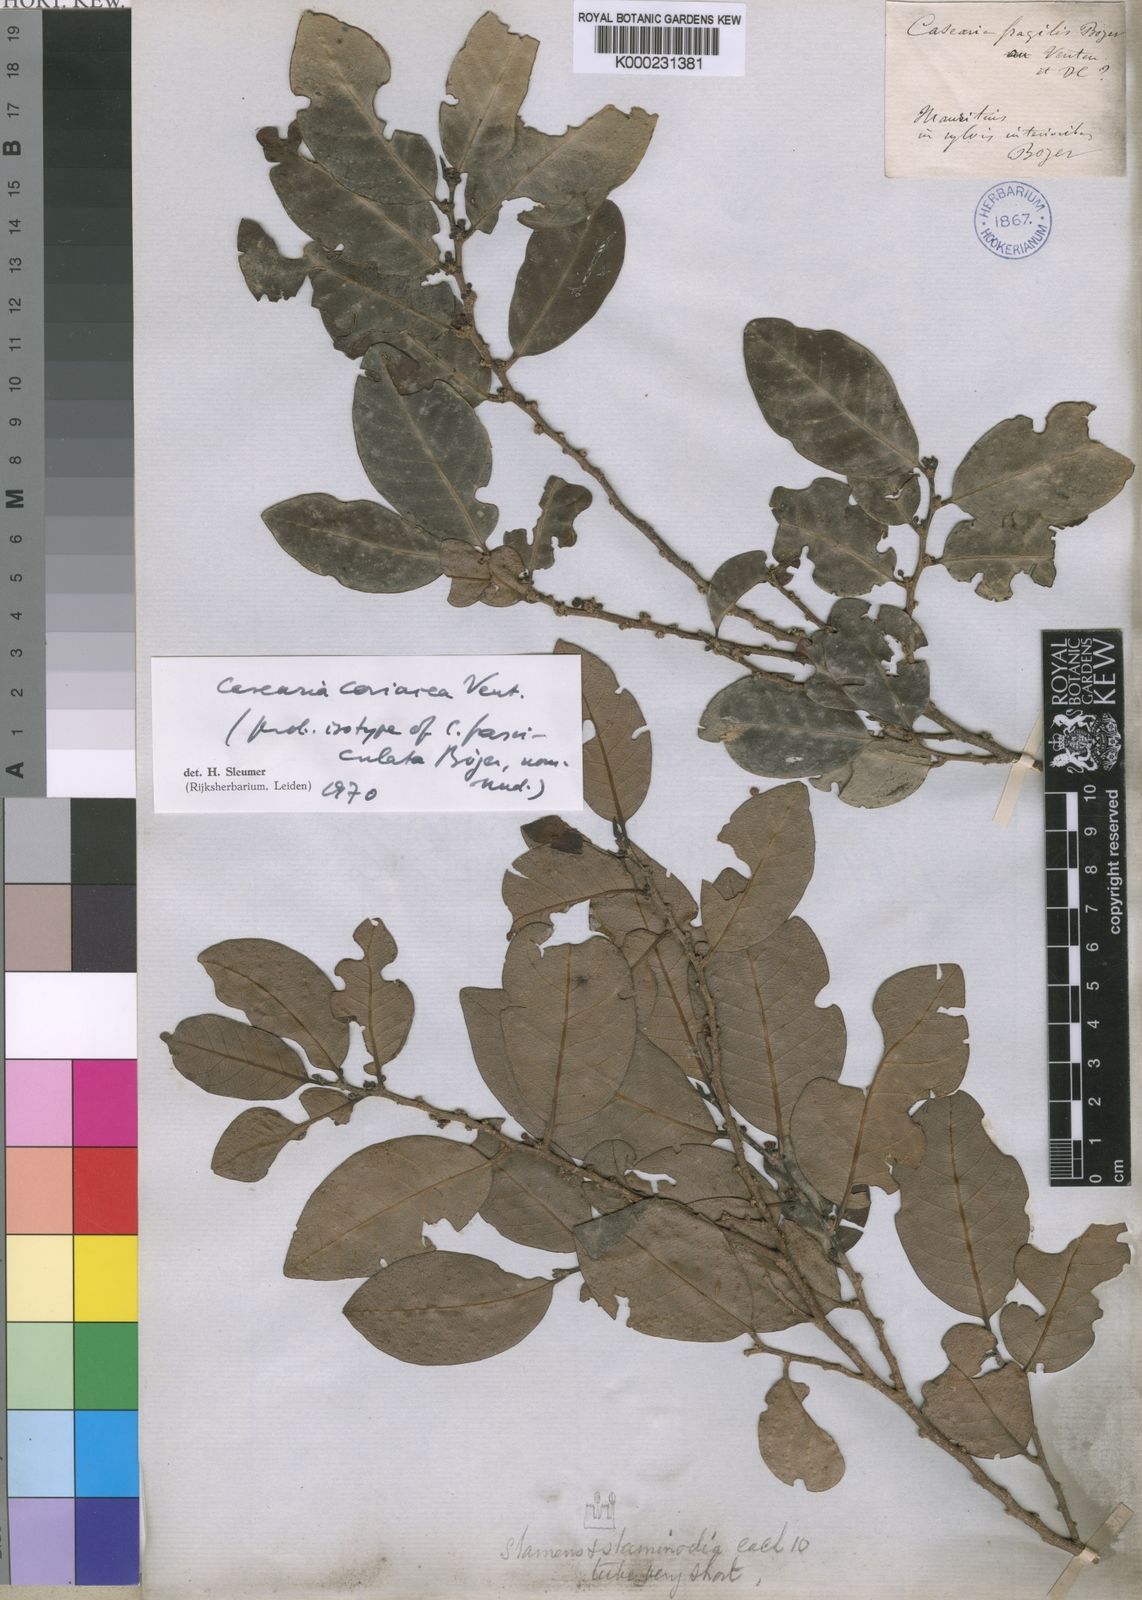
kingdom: Plantae
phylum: Tracheophyta
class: Magnoliopsida
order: Malpighiales
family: Salicaceae
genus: Casearia
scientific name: Casearia coriacea
